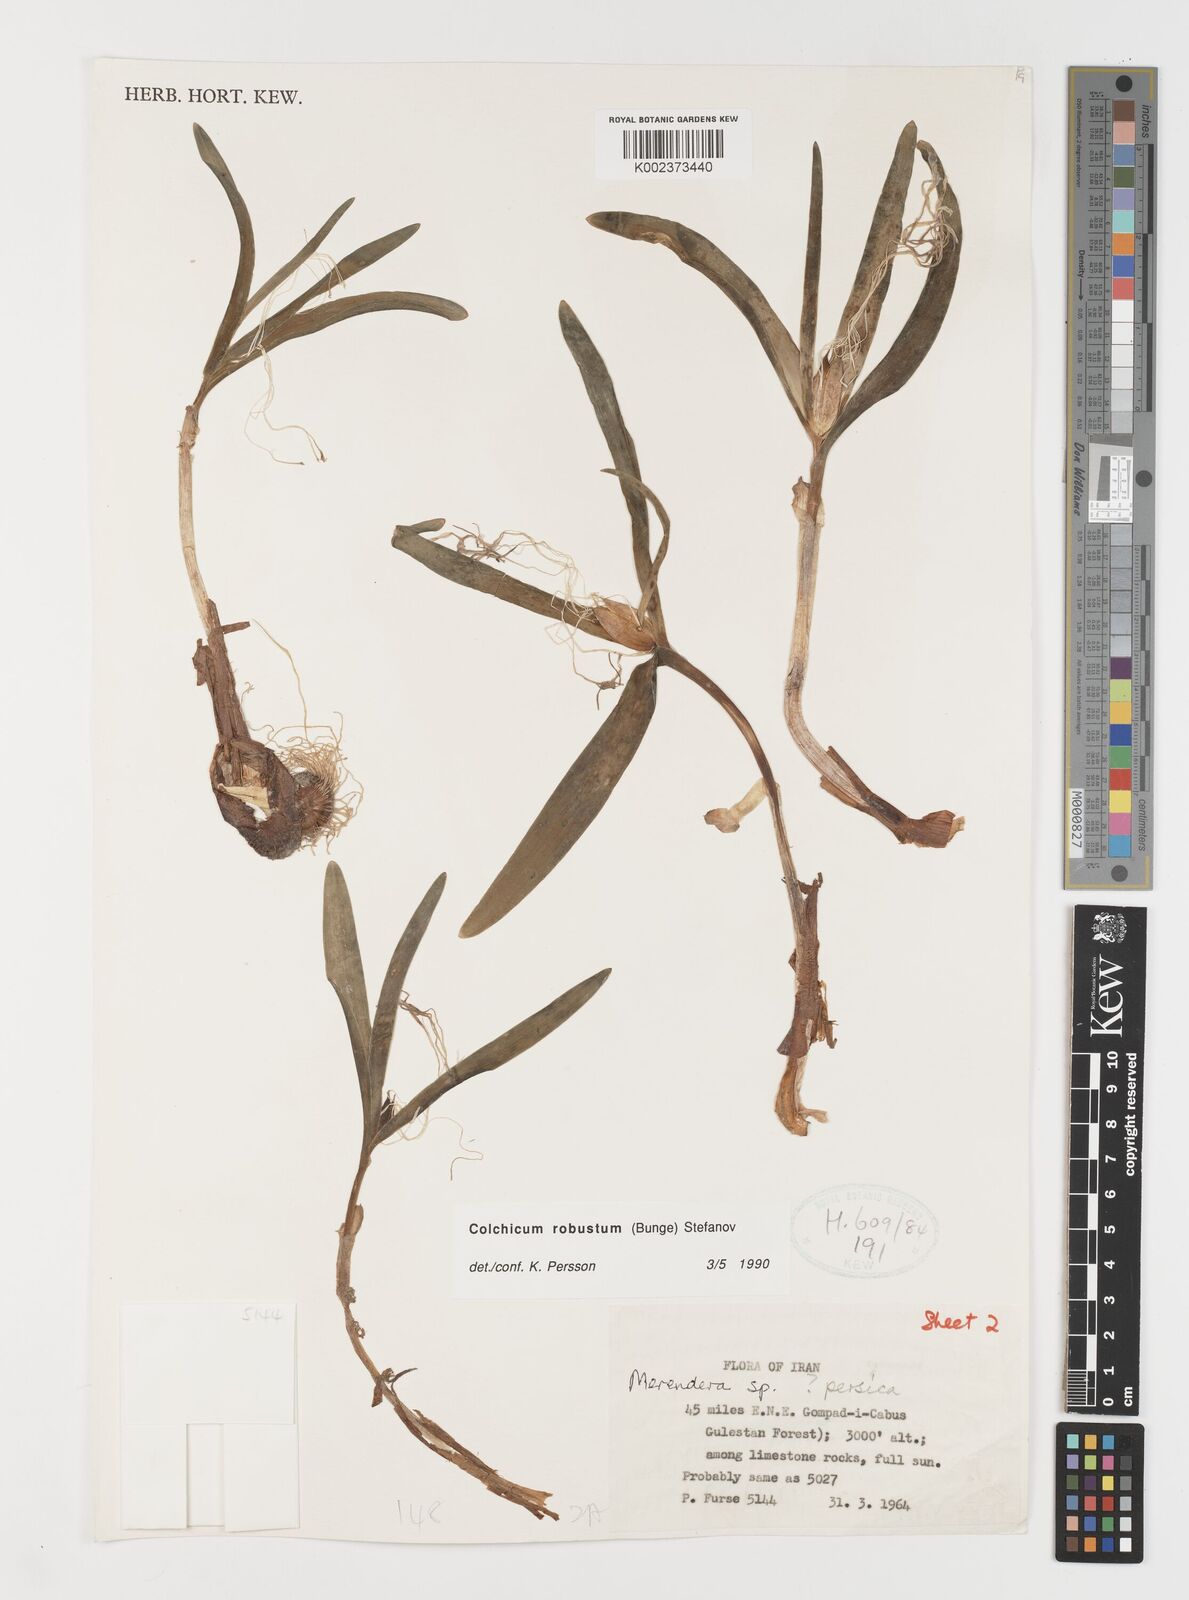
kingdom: Plantae
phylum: Tracheophyta
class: Liliopsida
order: Liliales
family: Colchicaceae
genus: Colchicum
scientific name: Colchicum robustum
